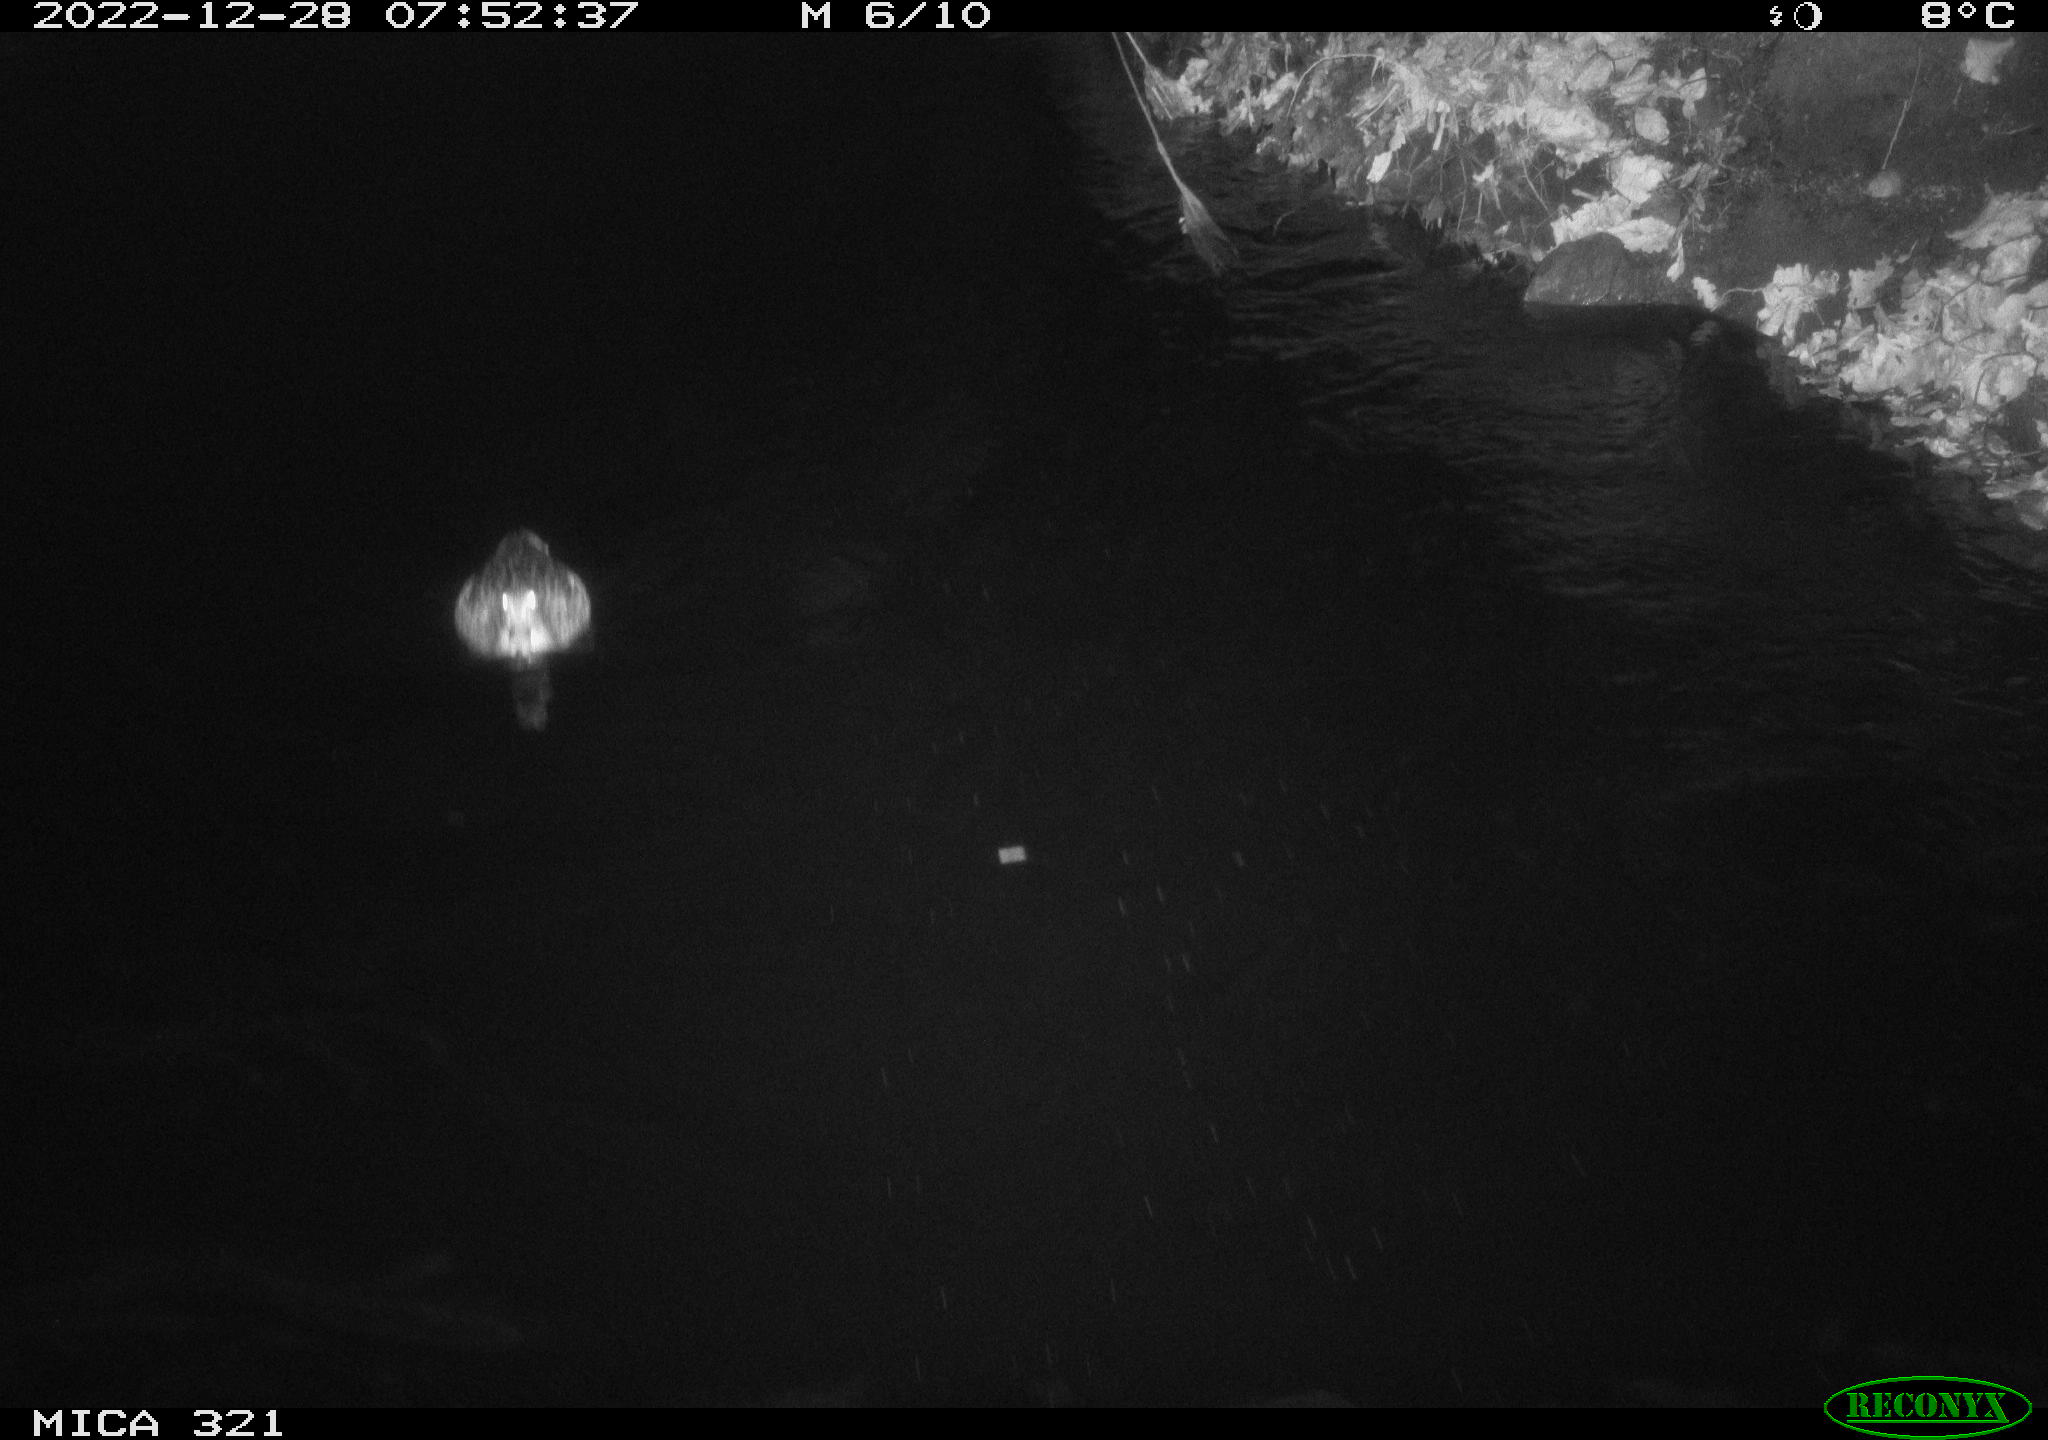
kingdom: Animalia
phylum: Chordata
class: Aves
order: Anseriformes
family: Anatidae
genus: Anas
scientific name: Anas
